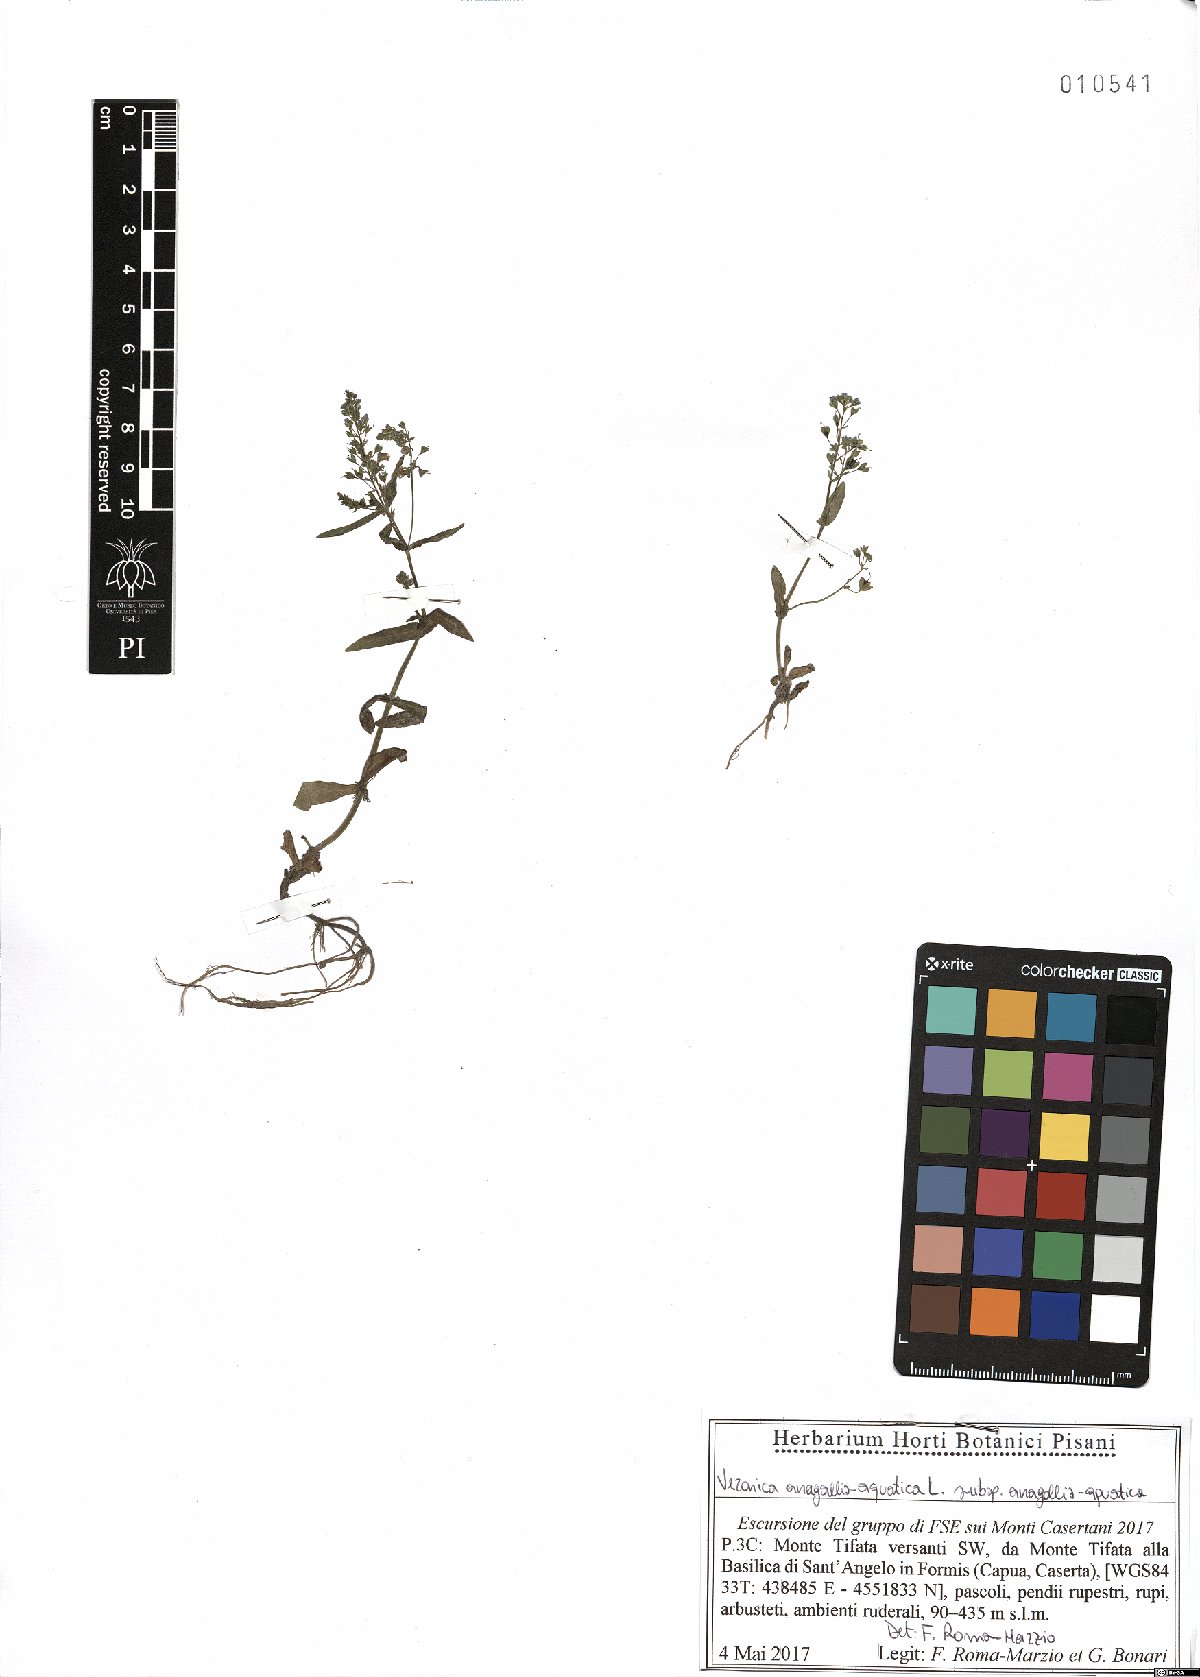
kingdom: Plantae
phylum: Tracheophyta
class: Magnoliopsida
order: Lamiales
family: Plantaginaceae
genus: Veronica
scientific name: Veronica anagallis-aquatica
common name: Water speedwell
